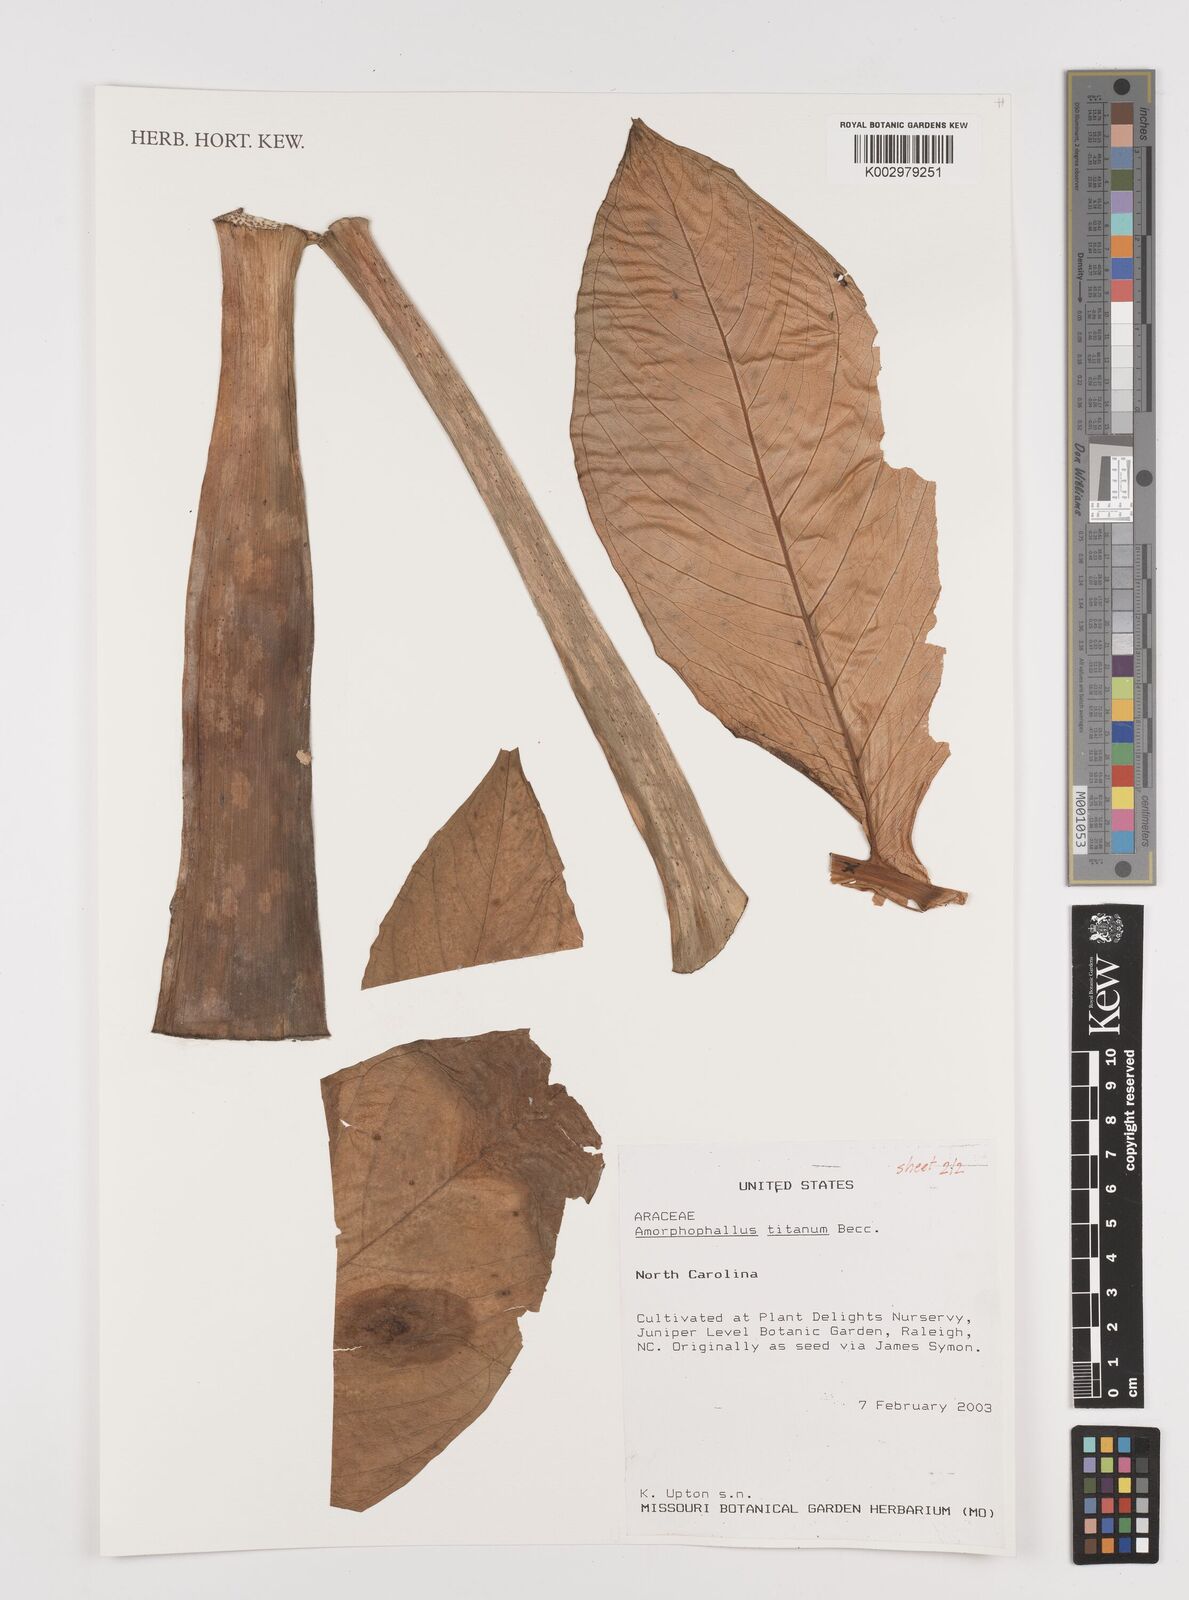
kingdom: Plantae
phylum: Tracheophyta
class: Liliopsida
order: Alismatales
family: Araceae
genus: Amorphophallus
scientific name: Amorphophallus titanum
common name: Titan arum
